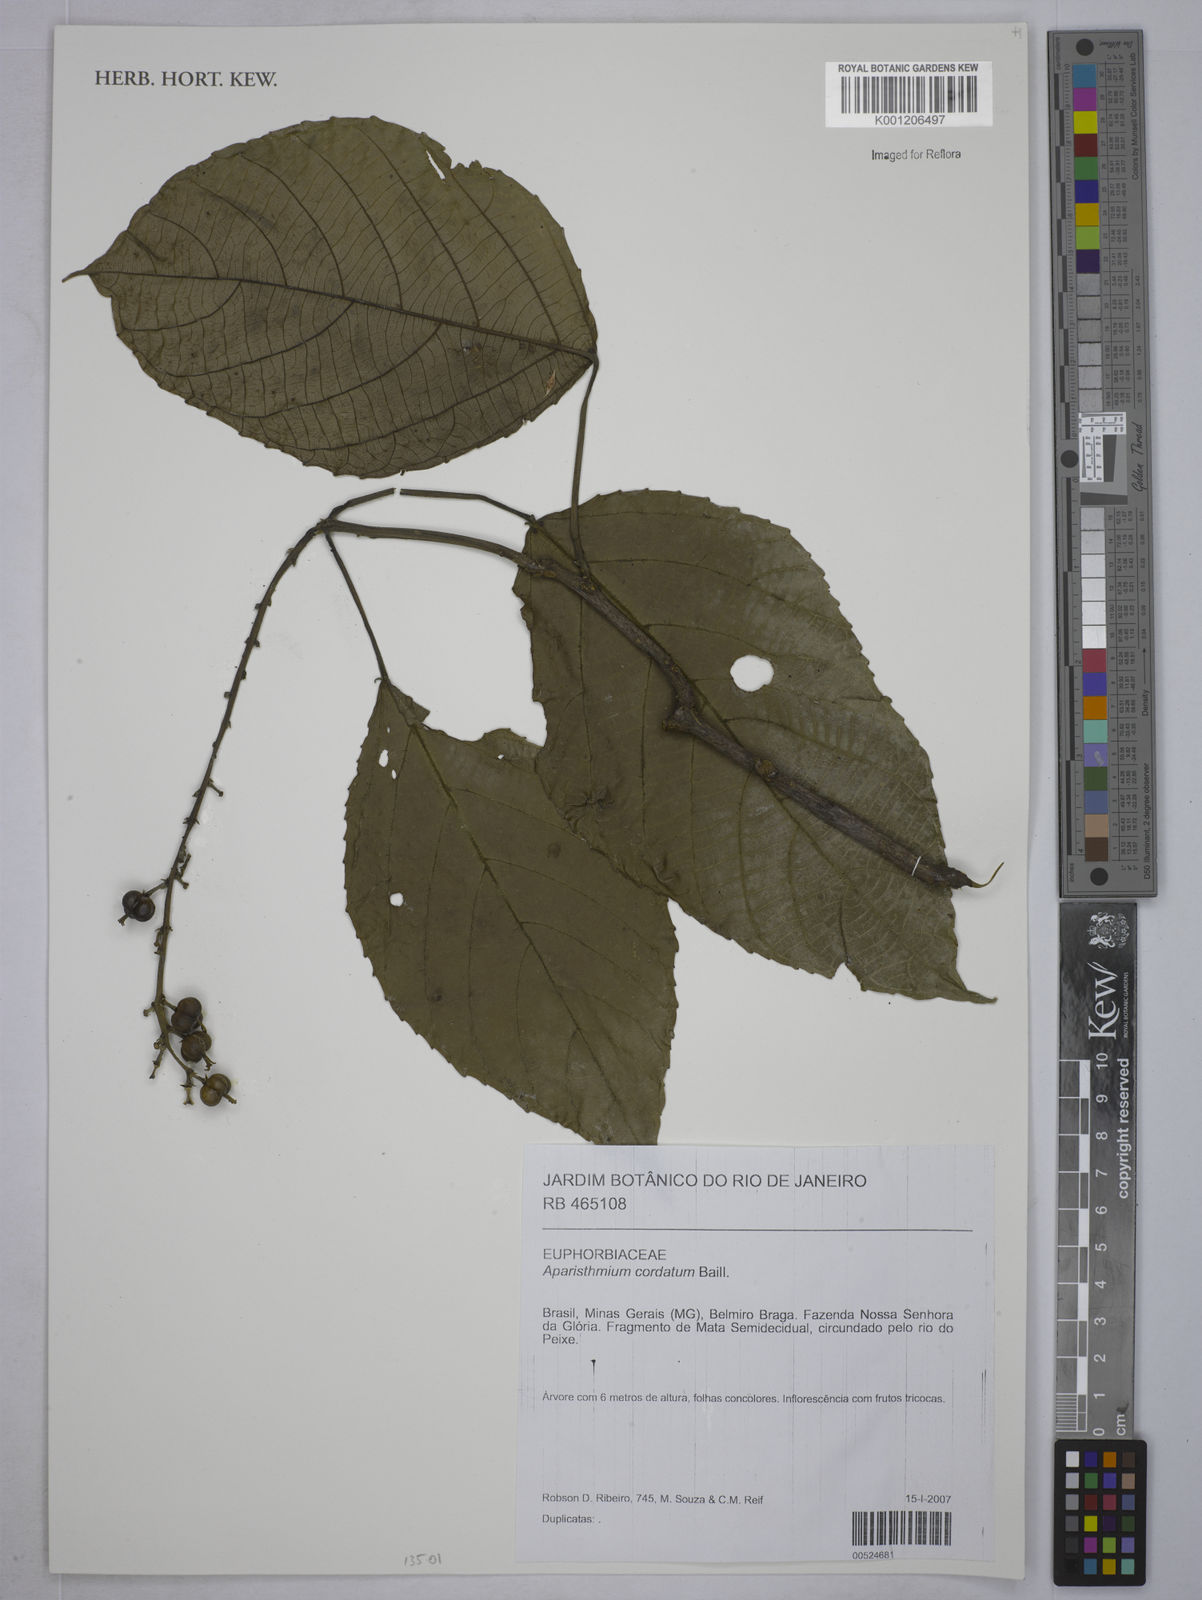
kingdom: Plantae
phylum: Tracheophyta
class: Magnoliopsida
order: Malpighiales
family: Euphorbiaceae
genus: Aparisthmium
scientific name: Aparisthmium cordatum
